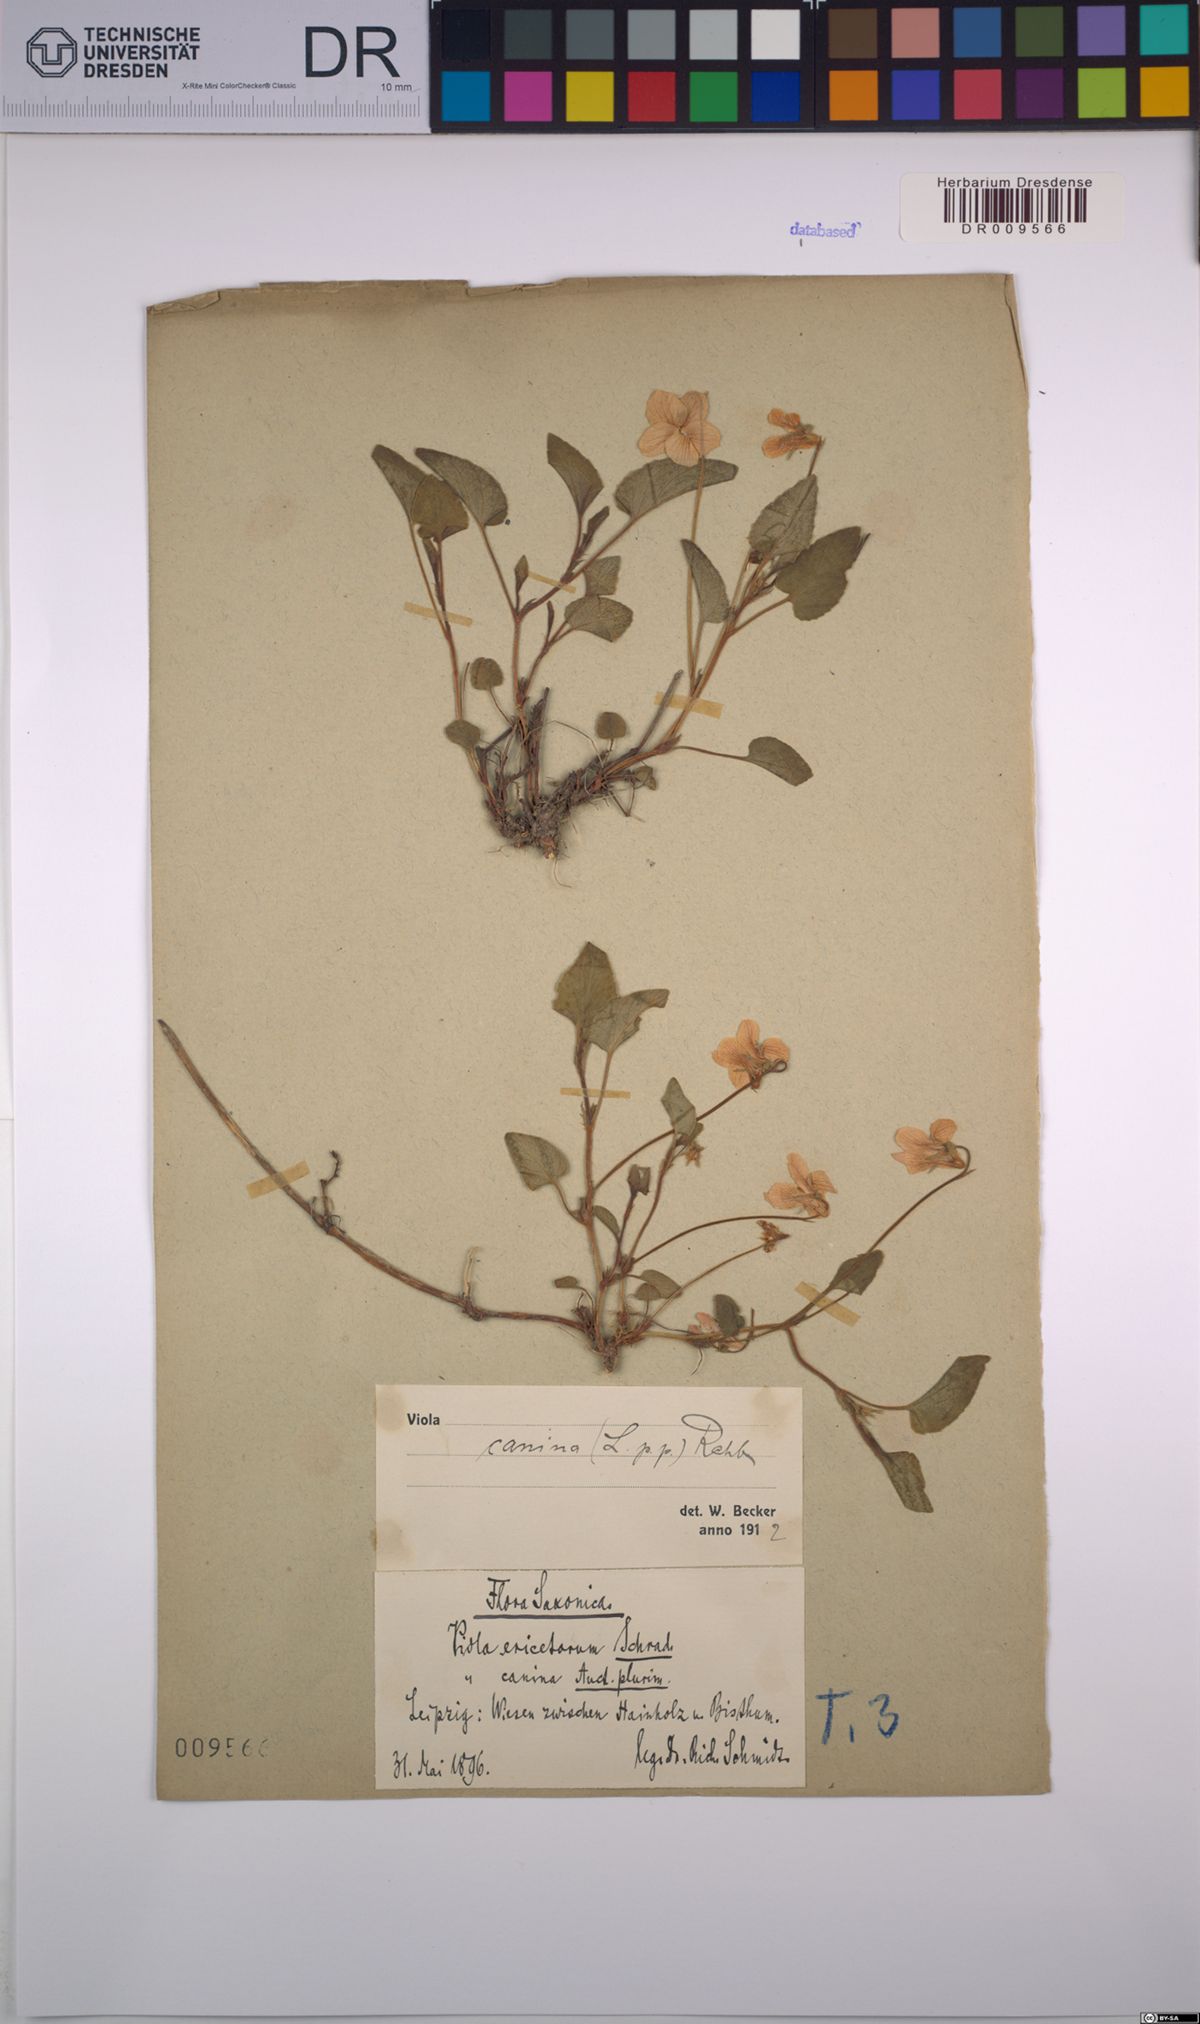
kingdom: Plantae
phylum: Tracheophyta
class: Magnoliopsida
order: Malpighiales
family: Violaceae
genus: Viola
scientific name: Viola canina
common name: Heath dog-violet
